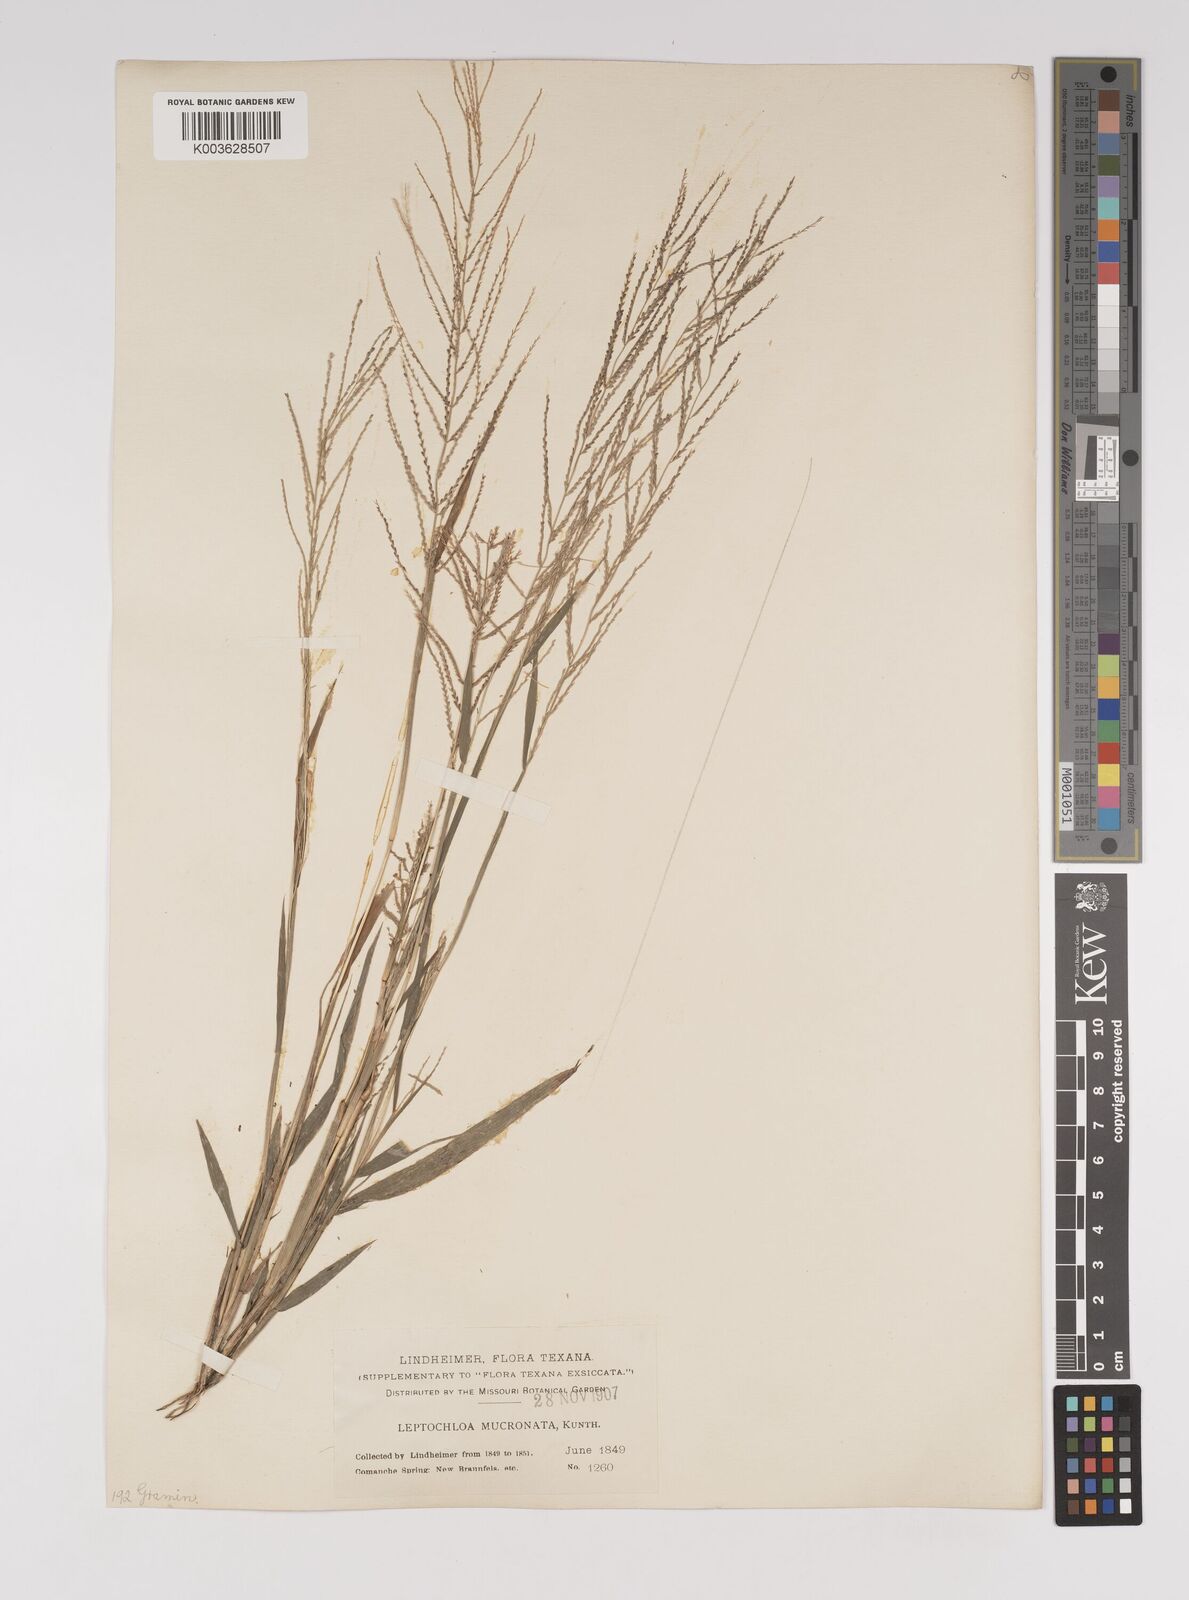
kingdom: Plantae
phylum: Tracheophyta
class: Liliopsida
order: Poales
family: Poaceae
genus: Leptochloa
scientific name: Leptochloa panicea
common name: Mucronate sprangletop
